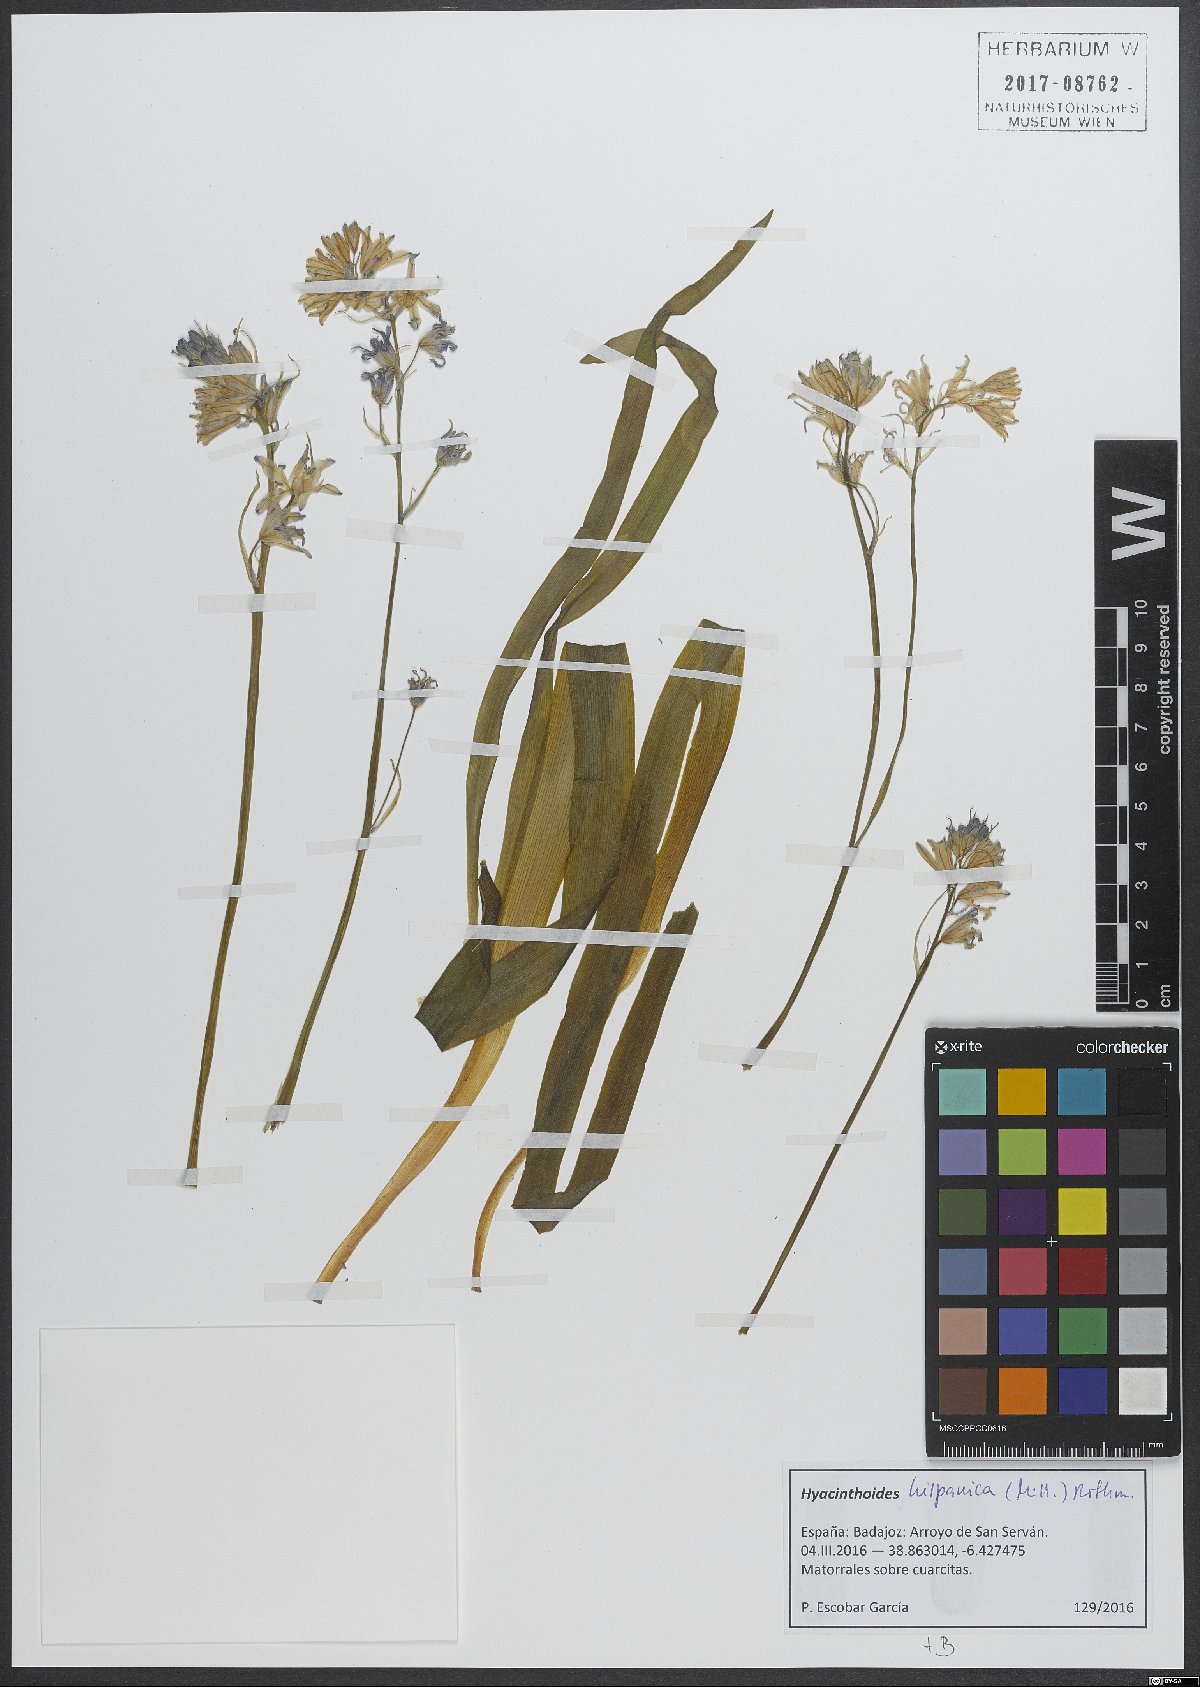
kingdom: Plantae
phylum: Tracheophyta
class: Liliopsida
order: Asparagales
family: Asparagaceae
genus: Hyacinthoides
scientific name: Hyacinthoides hispanica
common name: Spanish bluebell
